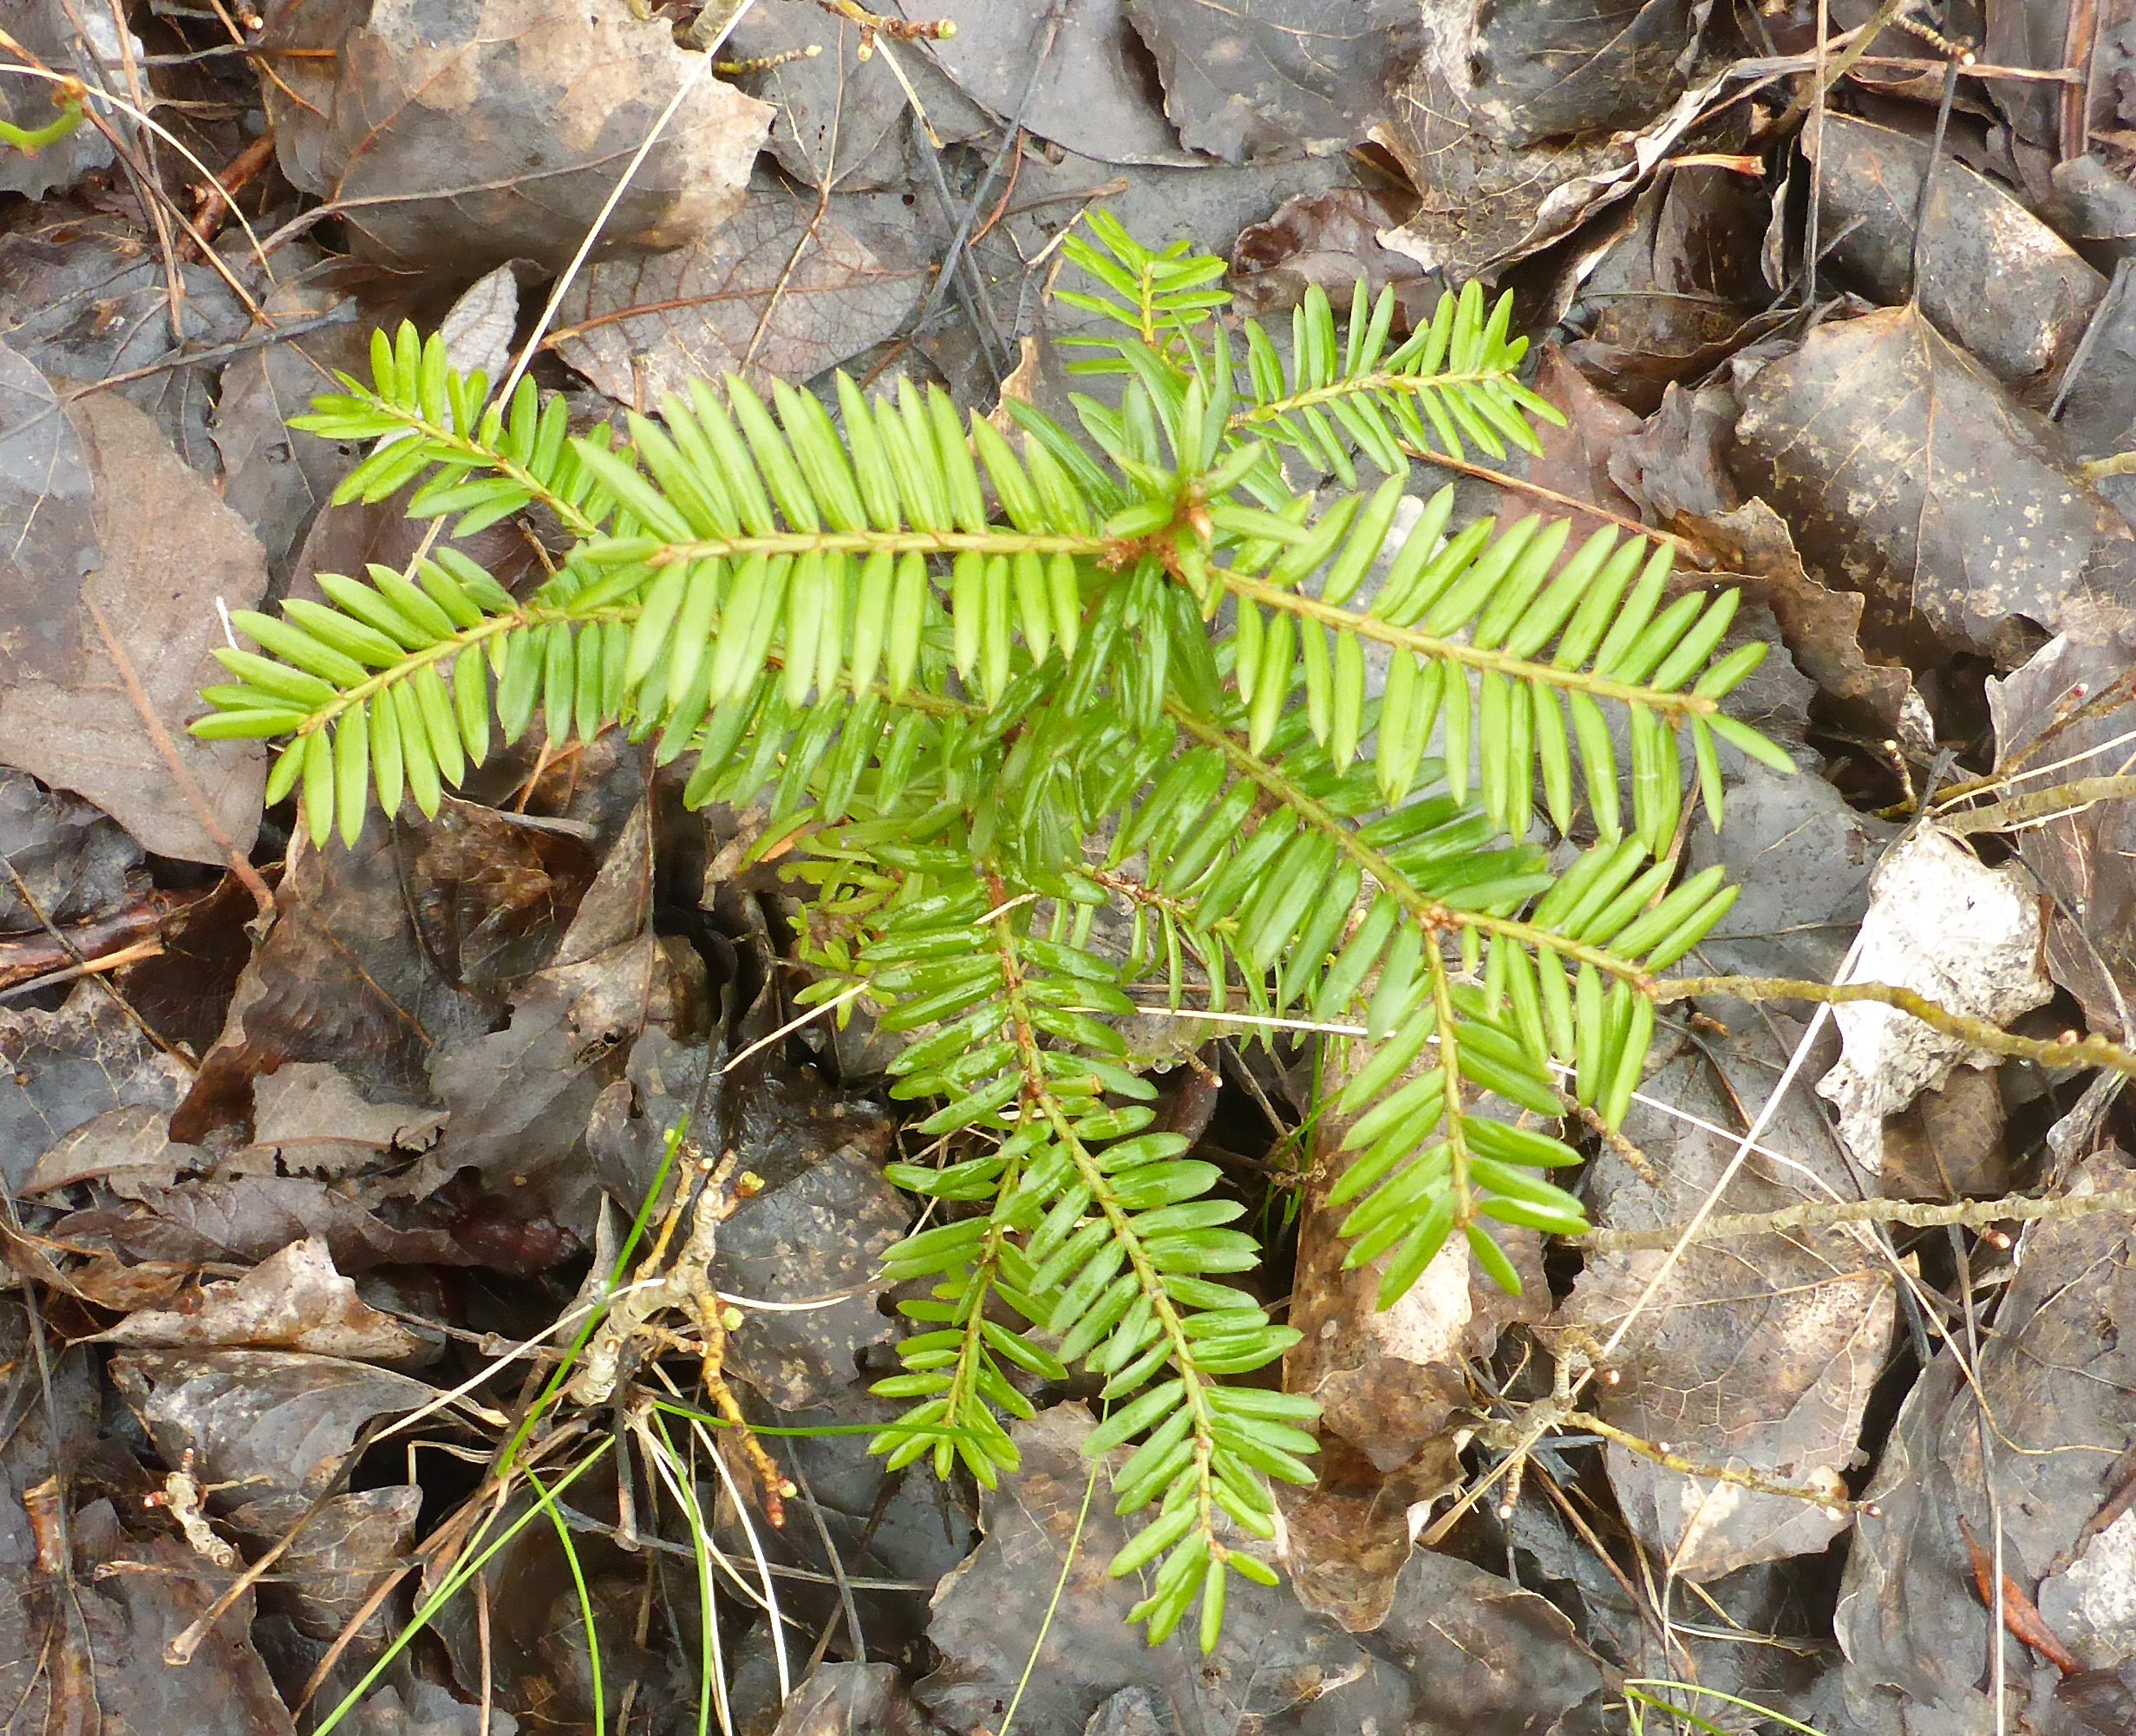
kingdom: Plantae
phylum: Tracheophyta
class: Pinopsida
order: Pinales
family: Taxaceae
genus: Taxus
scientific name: Taxus baccata
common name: Almindelig taks
